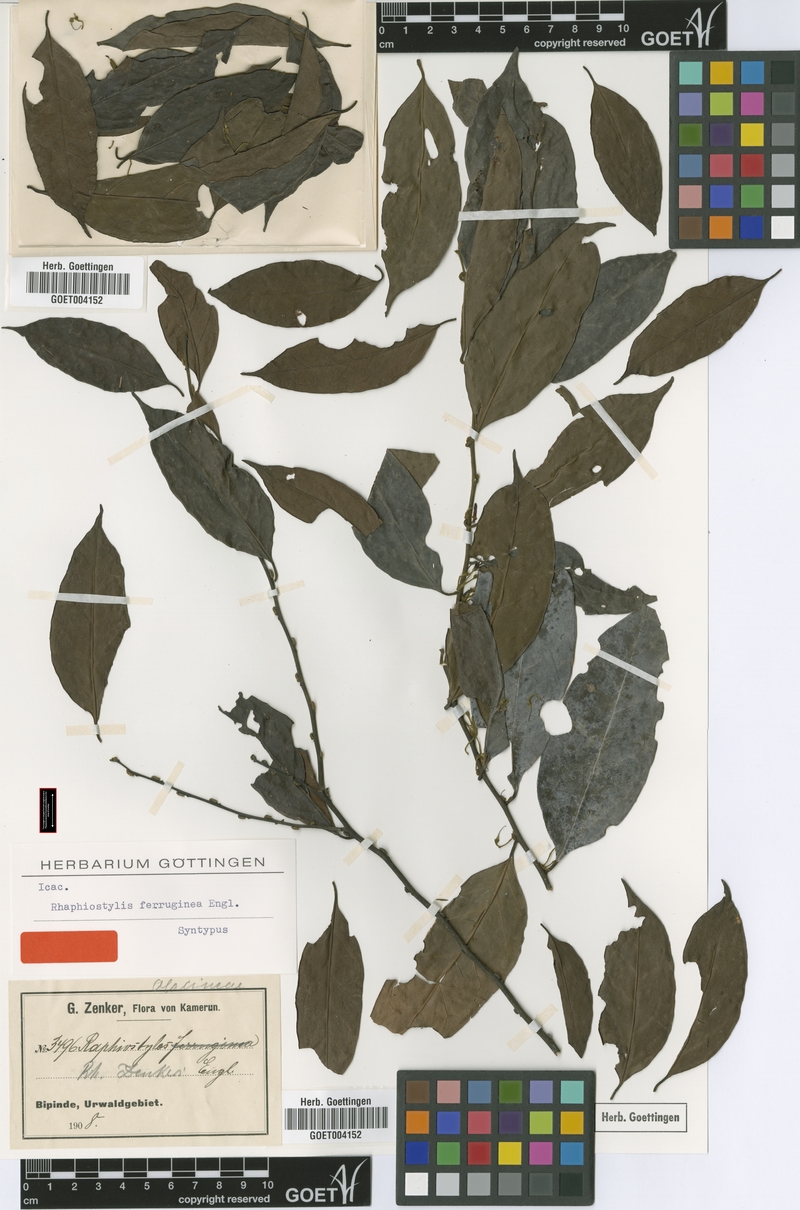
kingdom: Plantae
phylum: Tracheophyta
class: Magnoliopsida
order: Metteniusales
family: Metteniusaceae
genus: Rhaphiostylis
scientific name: Rhaphiostylis ferruginea
